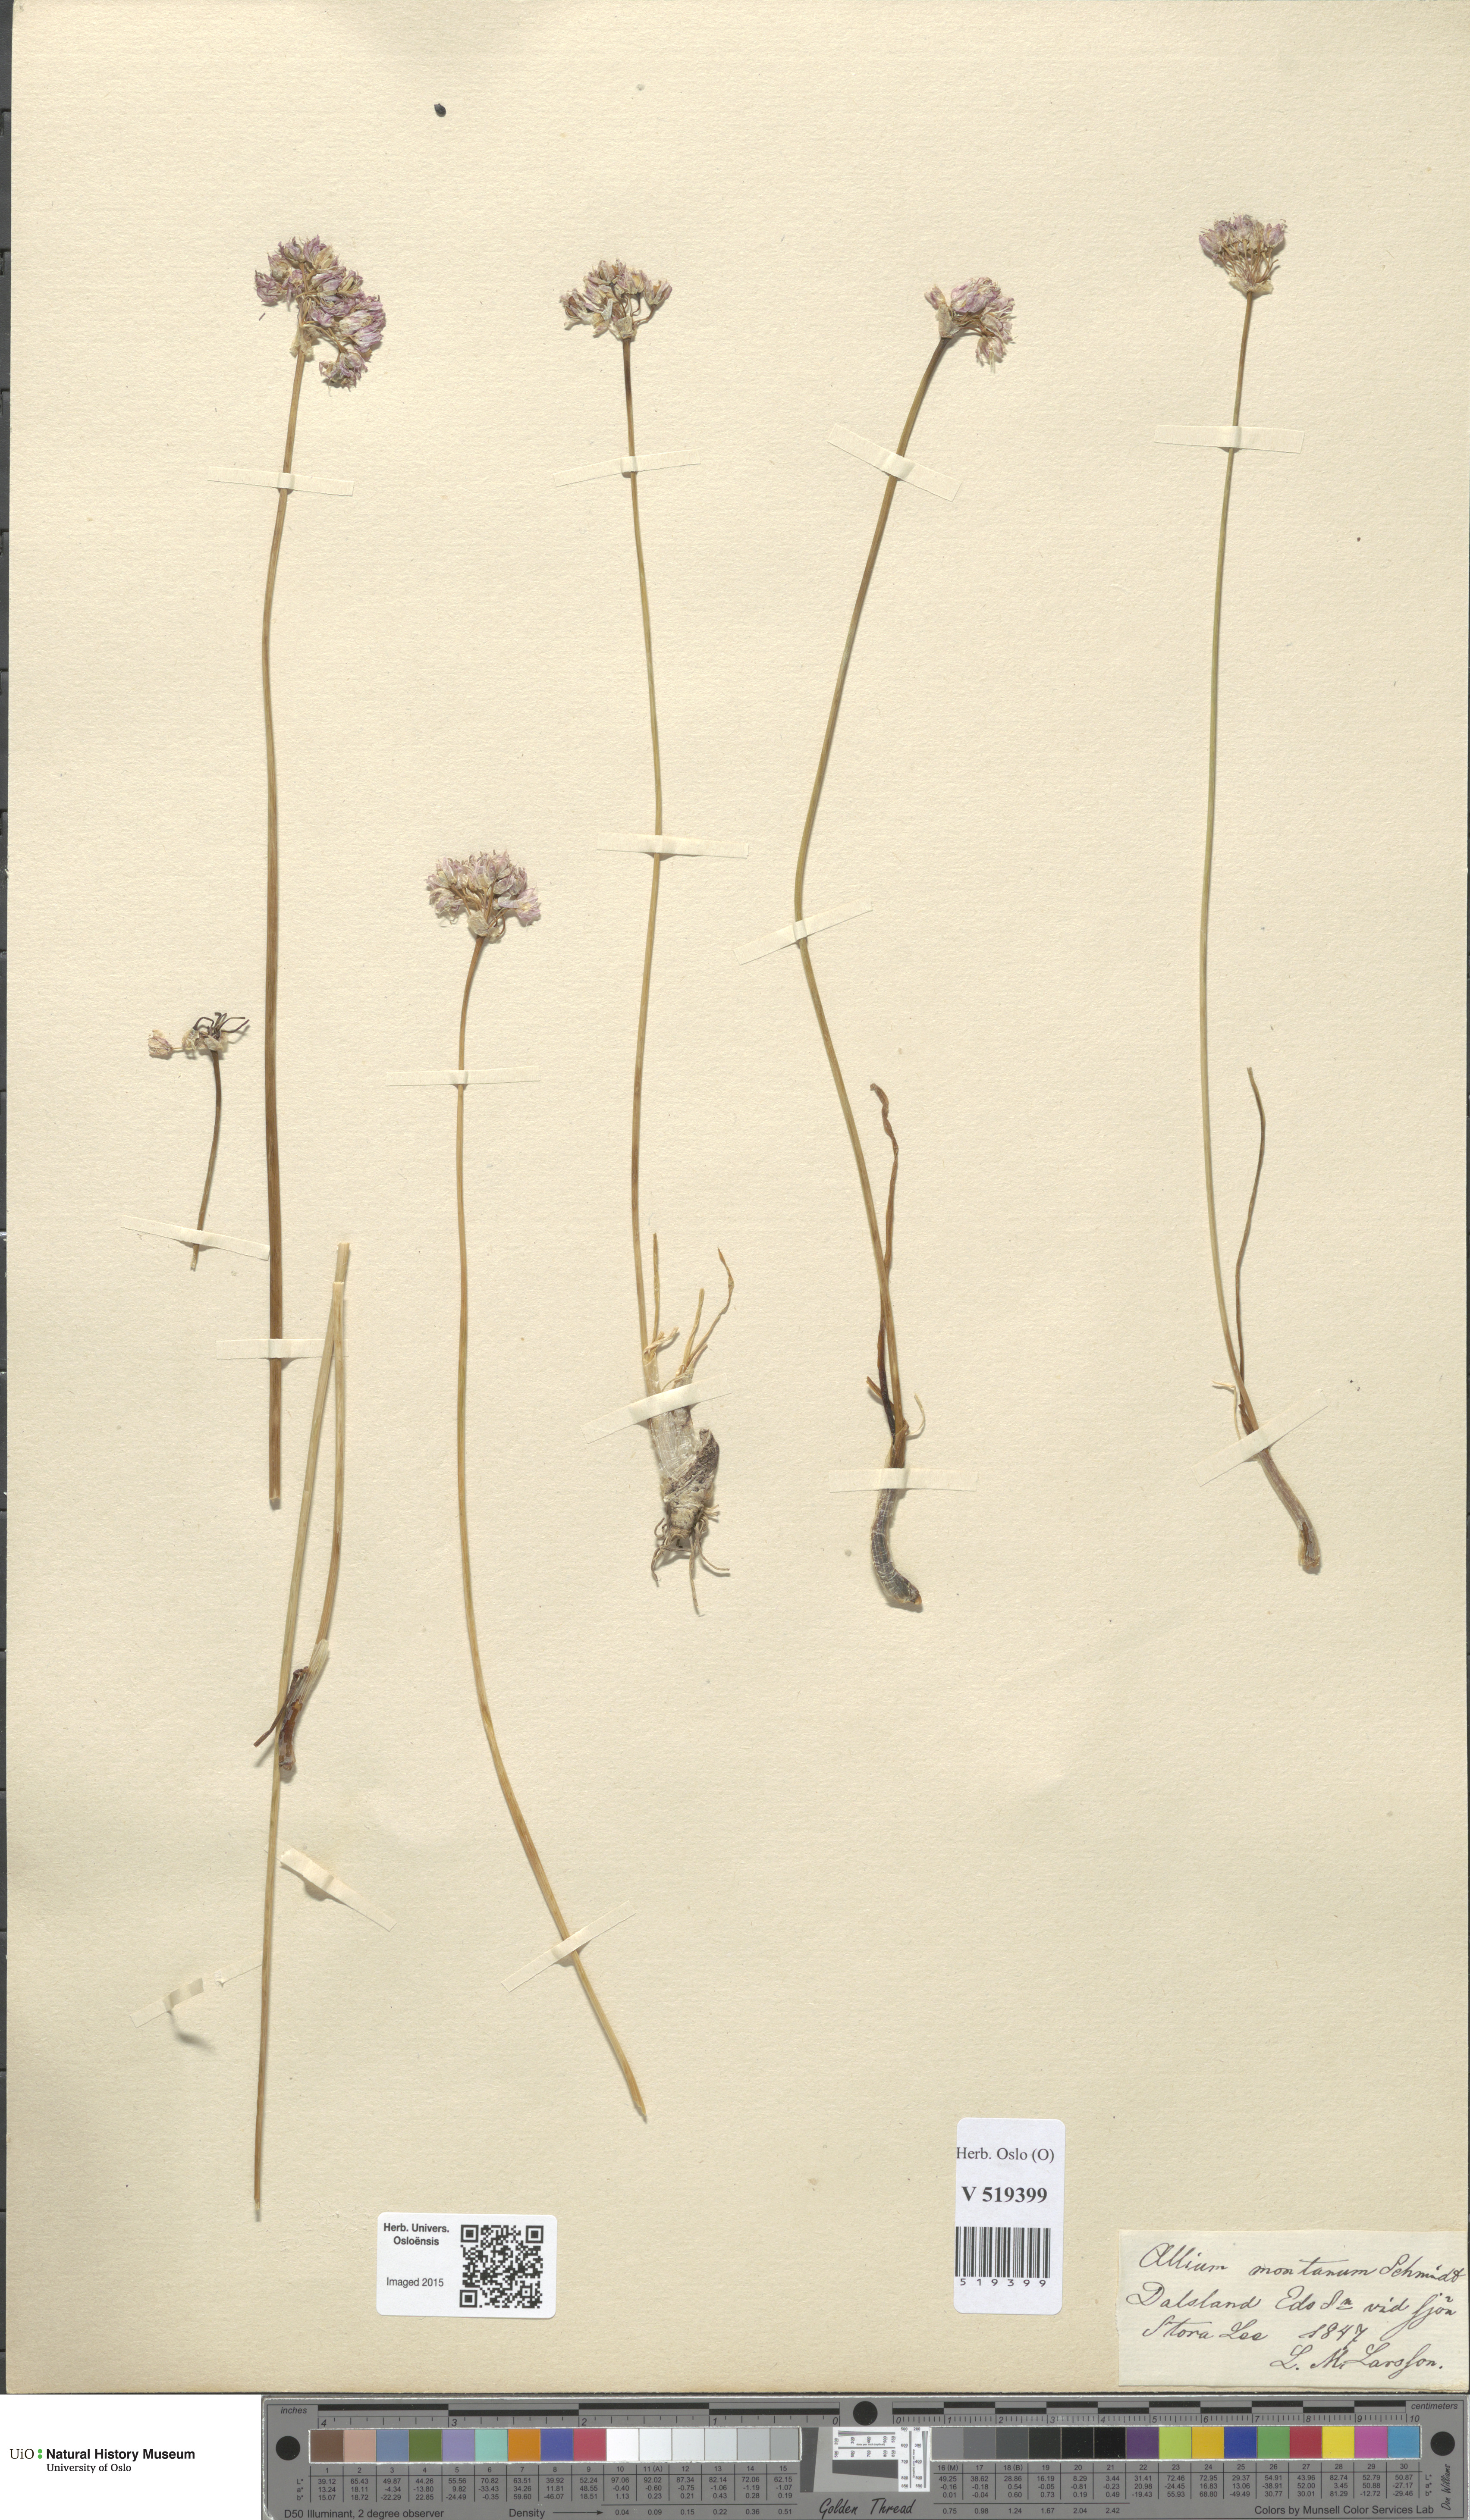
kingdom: Plantae
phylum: Tracheophyta
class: Liliopsida
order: Asparagales
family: Amaryllidaceae
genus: Allium
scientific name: Allium lusitanicum
